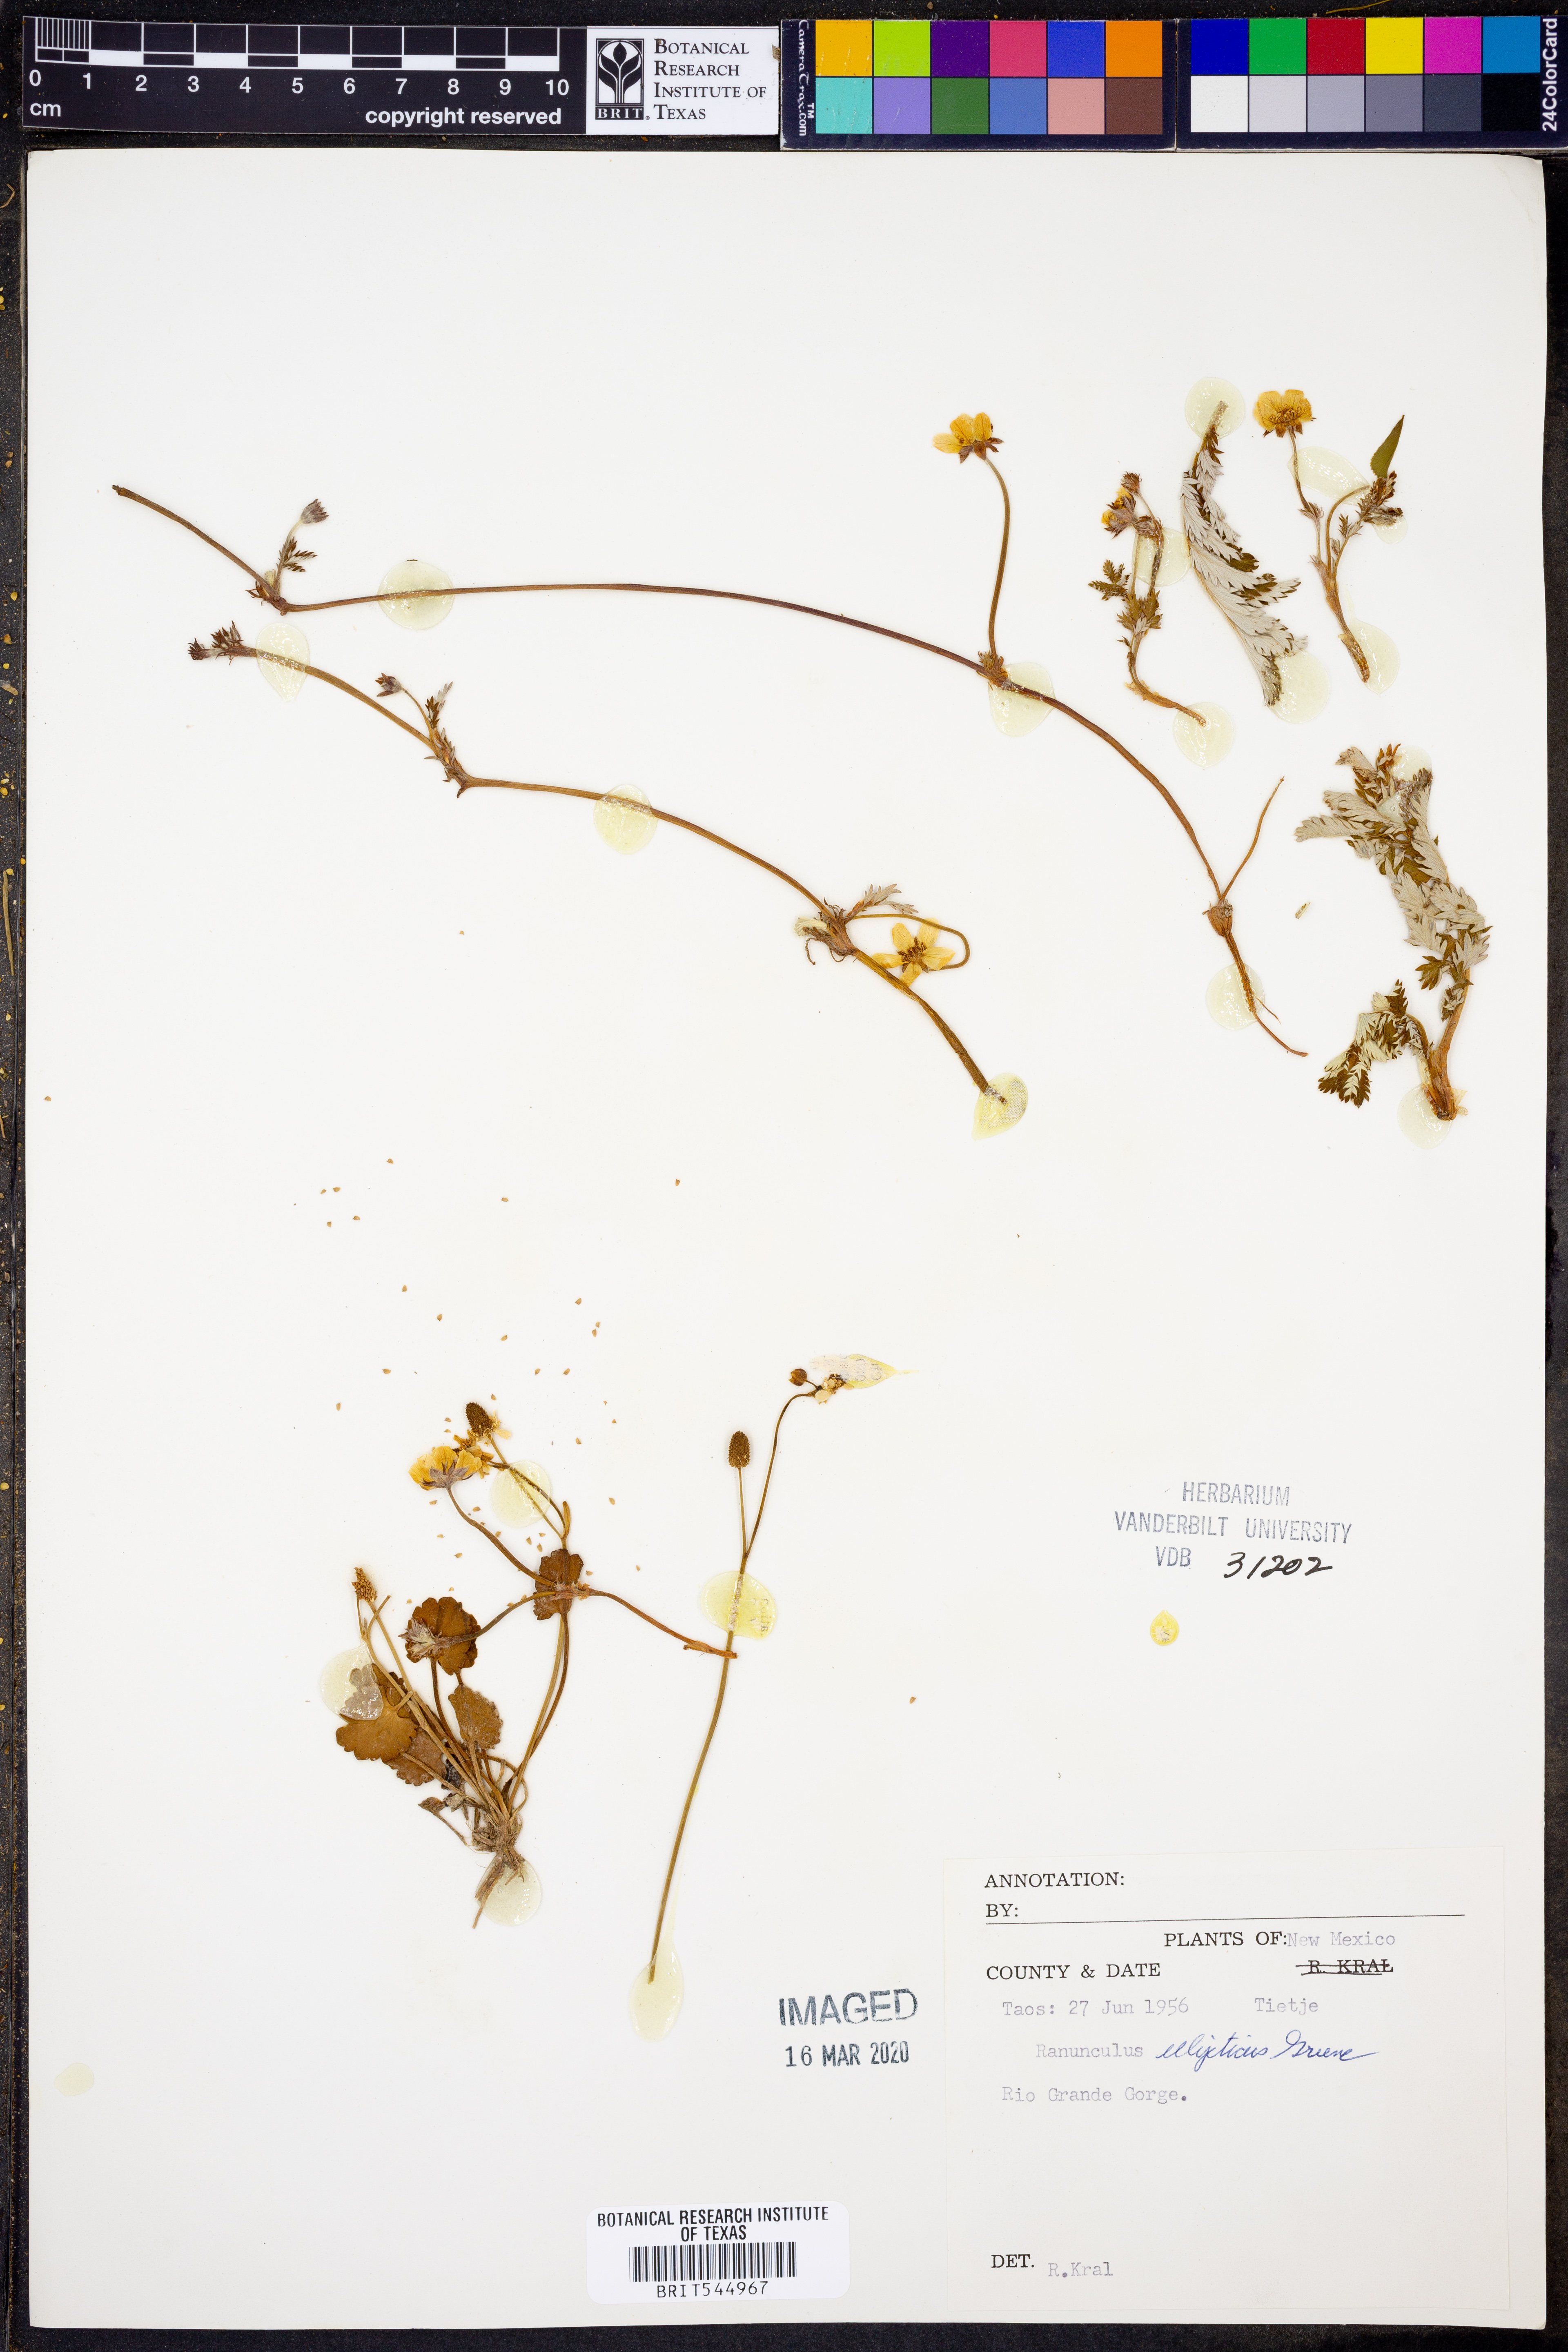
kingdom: Plantae
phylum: Tracheophyta
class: Magnoliopsida
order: Ranunculales
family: Ranunculaceae
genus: Ranunculus
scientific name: Ranunculus glaberrimus
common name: Sagebrush buttercup
